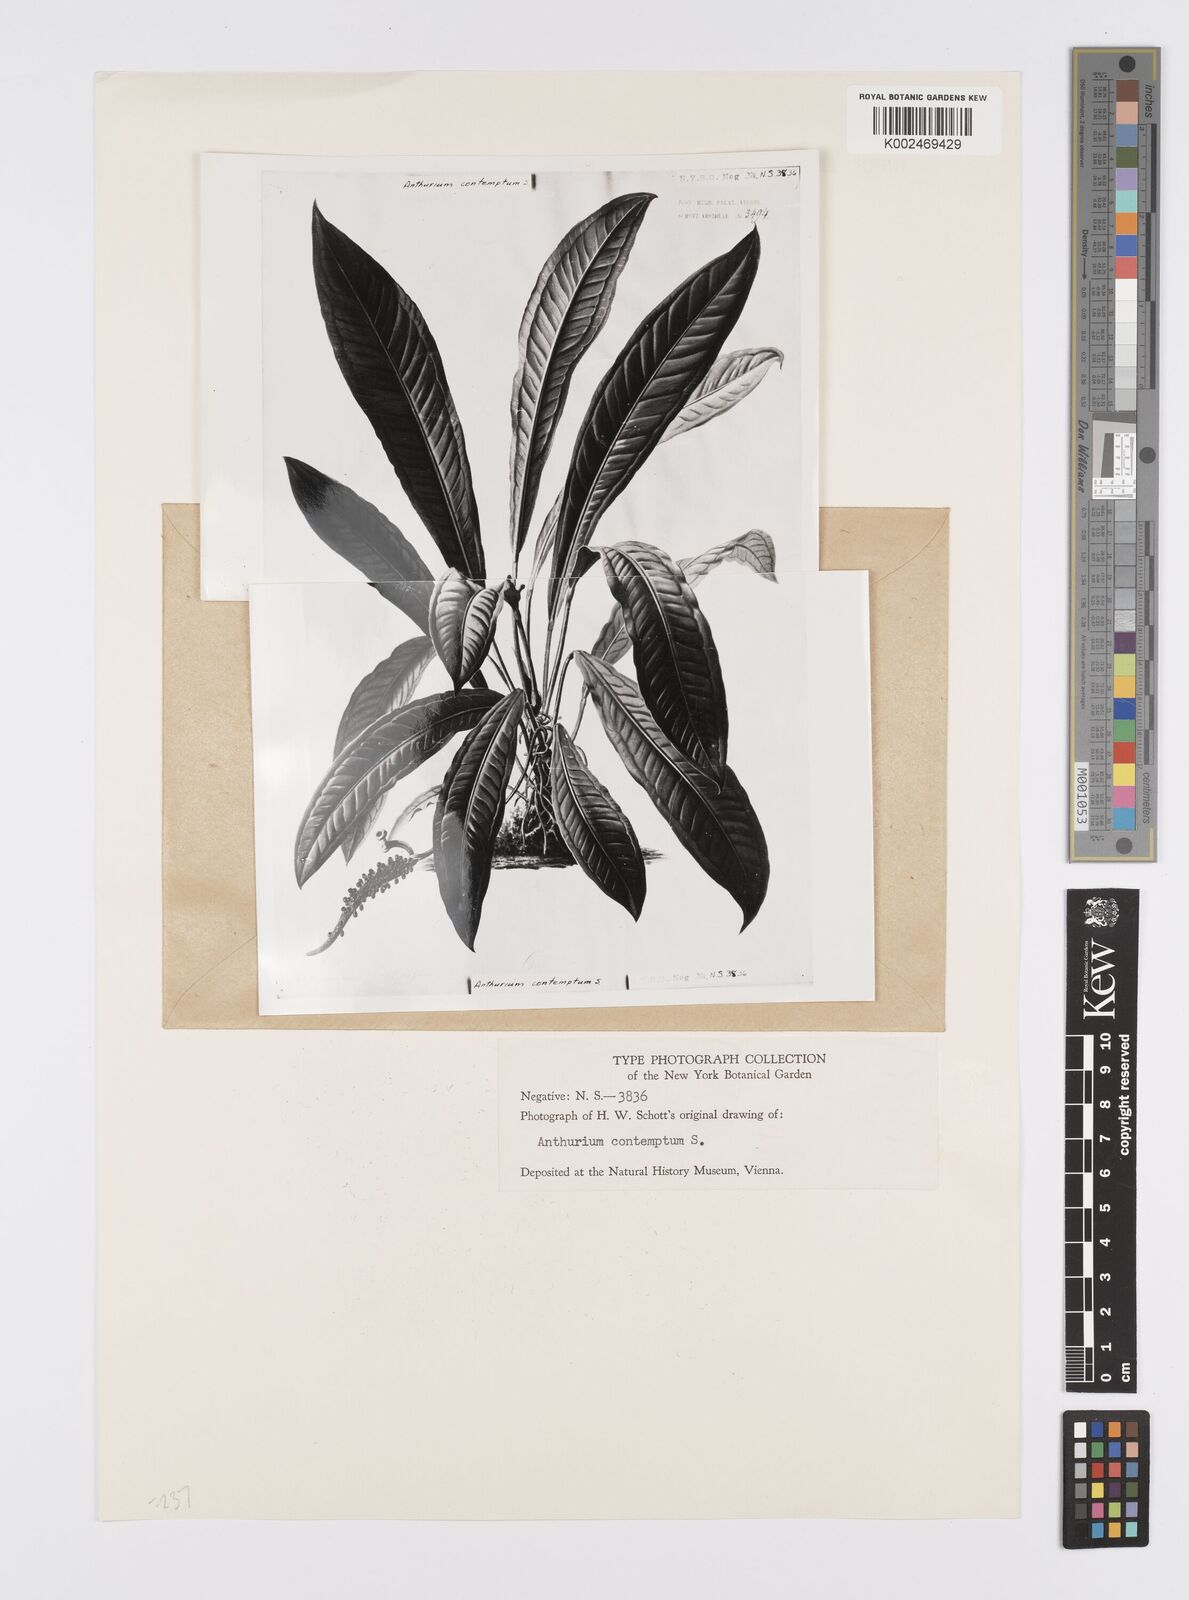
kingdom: Plantae
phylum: Tracheophyta
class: Liliopsida
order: Alismatales
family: Araceae
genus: Anthurium
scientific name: Anthurium harrisii
